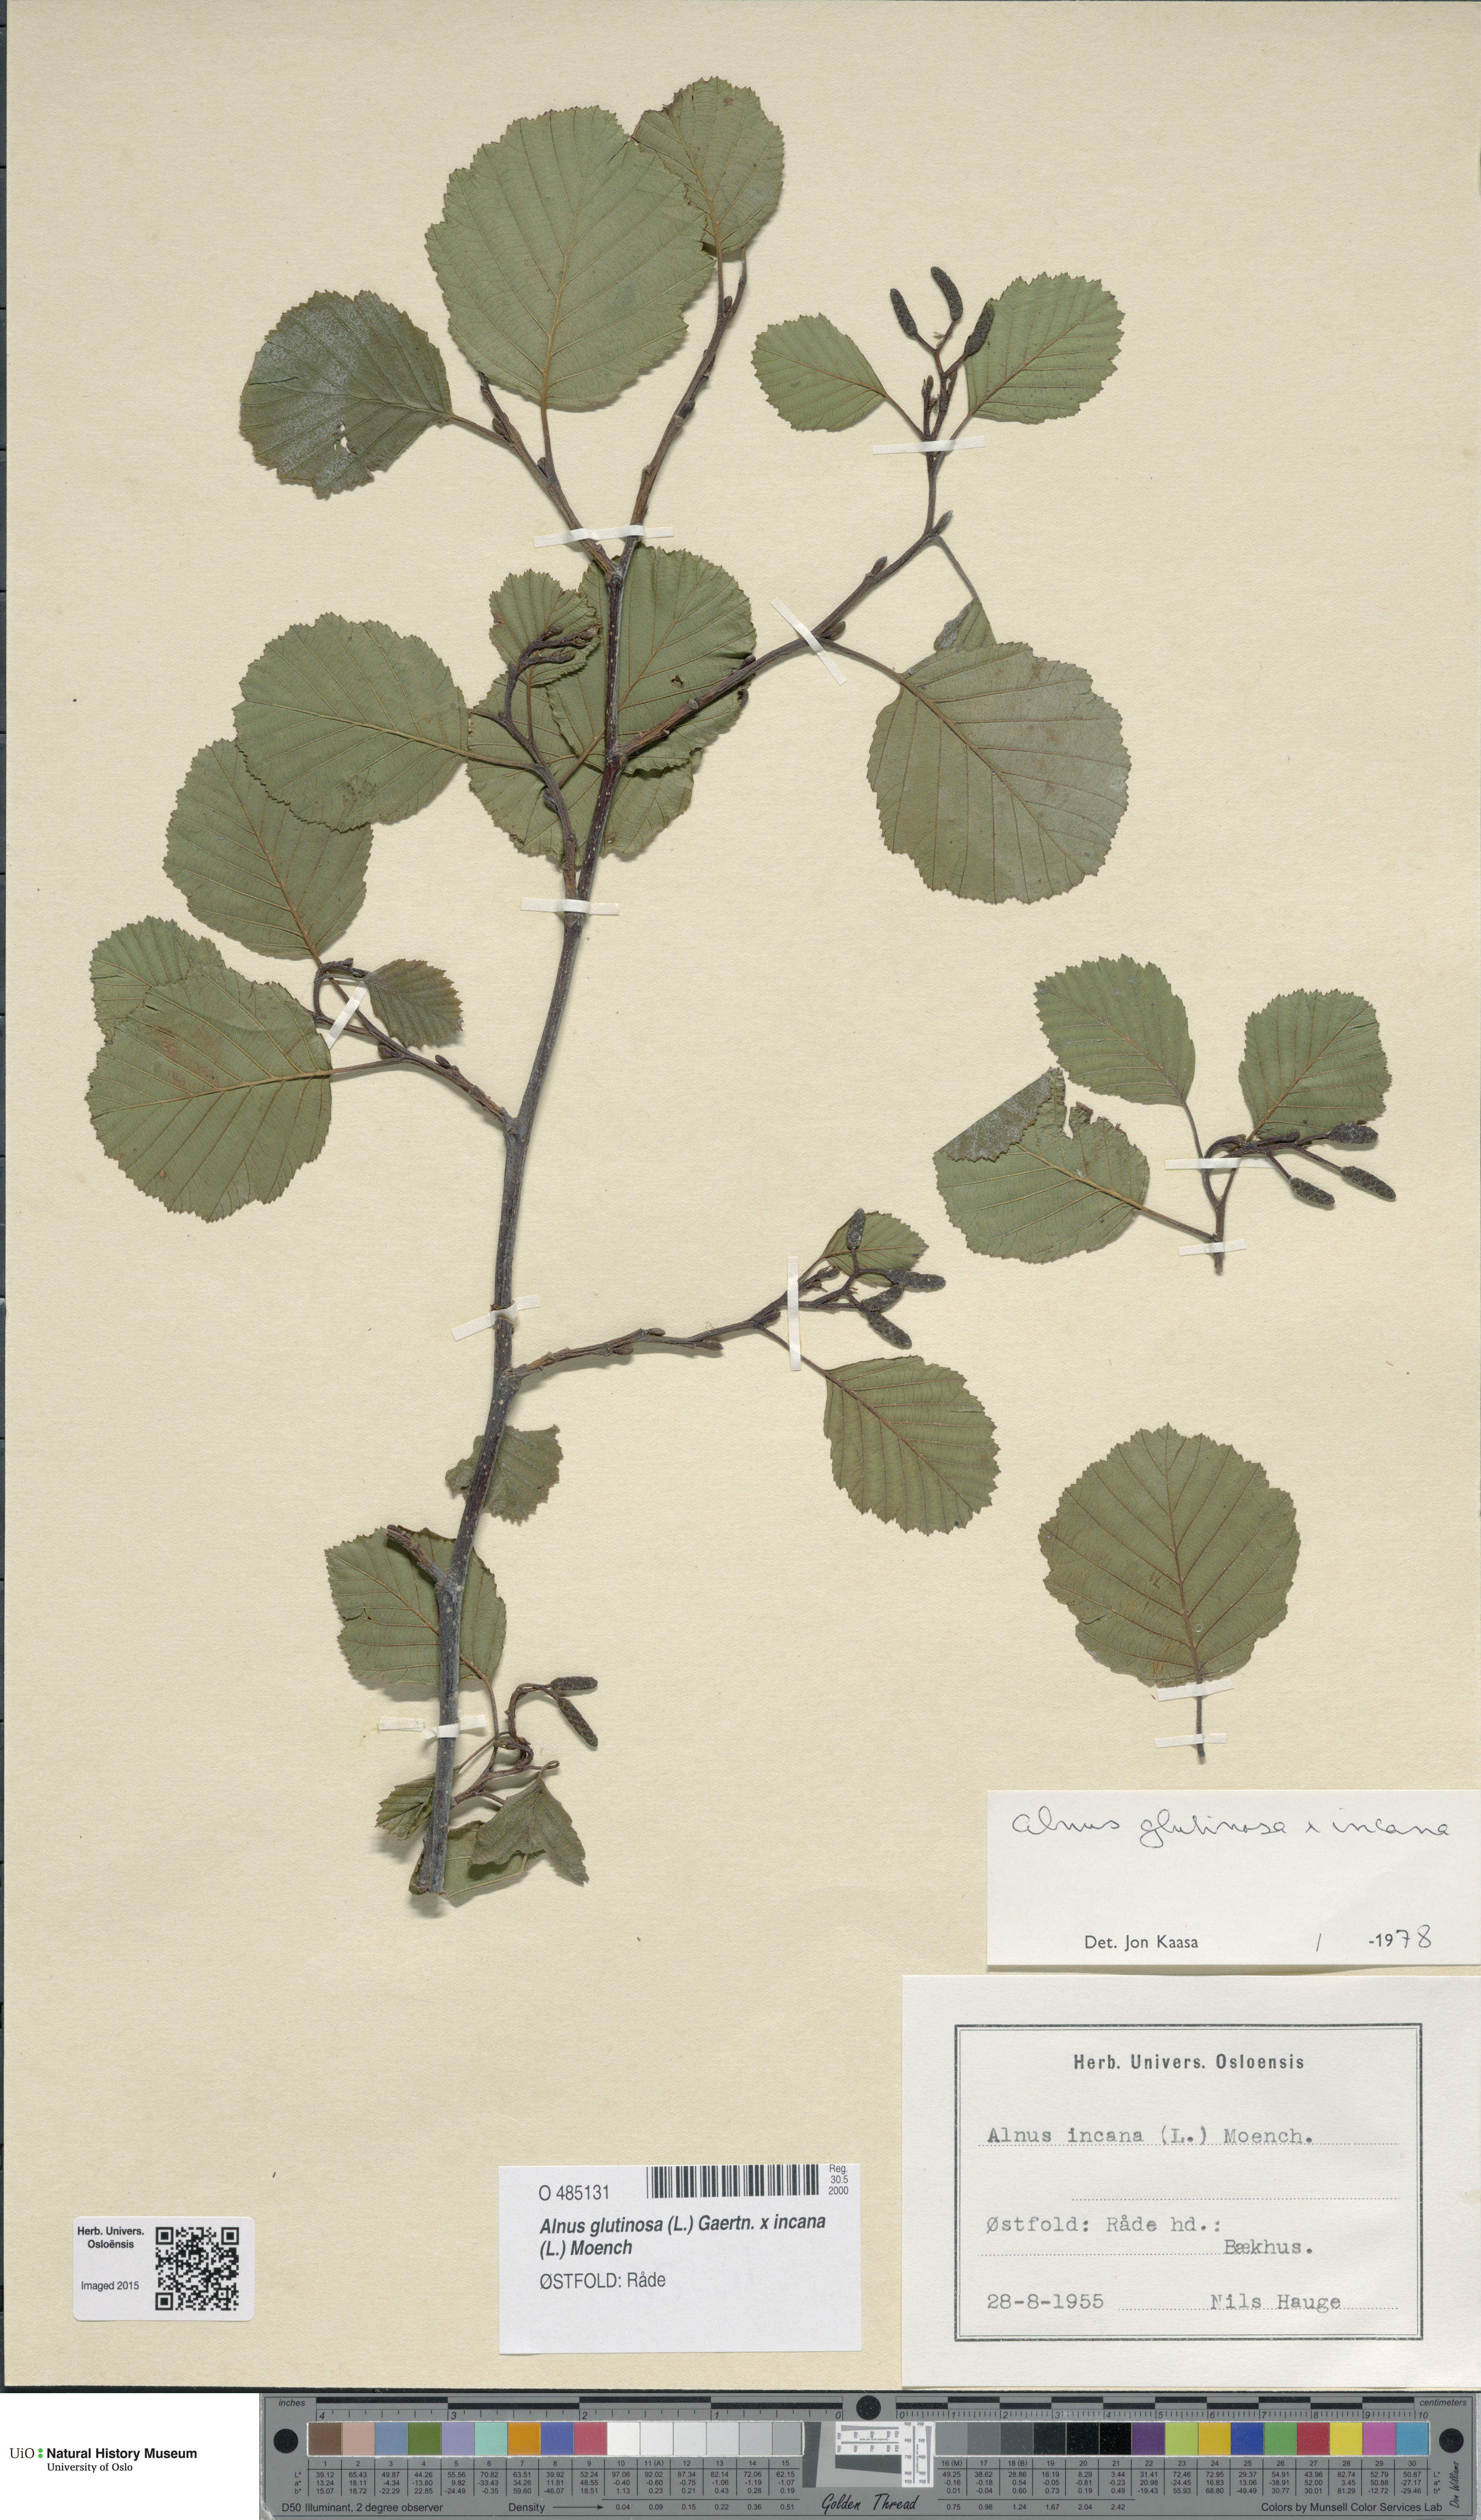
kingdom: Plantae
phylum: Tracheophyta
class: Magnoliopsida
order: Fagales
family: Betulaceae
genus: Alnus
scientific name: Alnus
